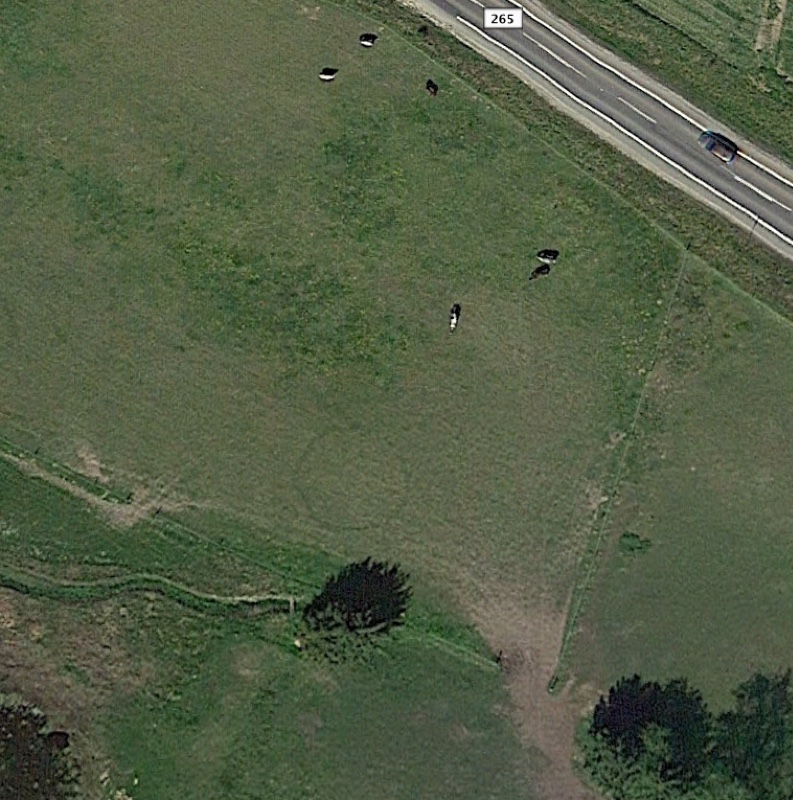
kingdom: Fungi
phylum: Basidiomycota
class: Agaricomycetes
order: Agaricales
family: Lycoperdaceae
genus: Calvatia
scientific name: Calvatia gigantea
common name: kæmpestøvbold
